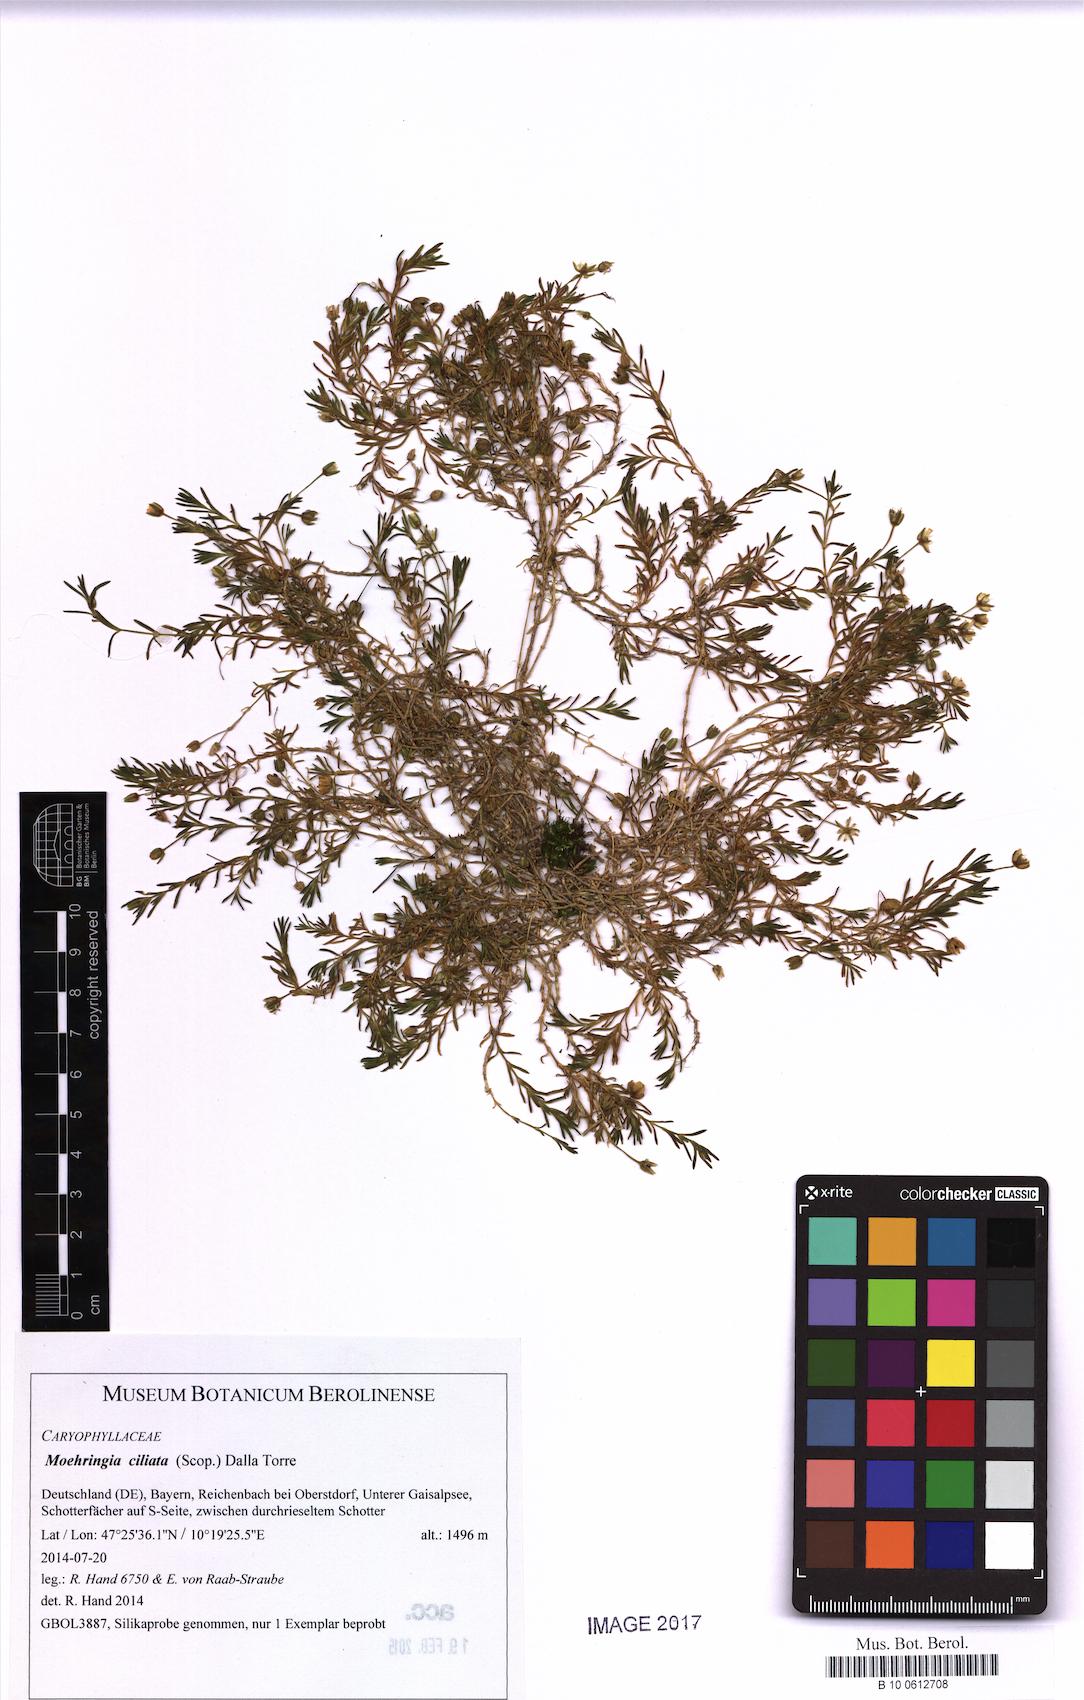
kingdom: Plantae
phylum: Tracheophyta
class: Magnoliopsida
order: Caryophyllales
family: Caryophyllaceae
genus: Moehringia
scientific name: Moehringia ciliata
